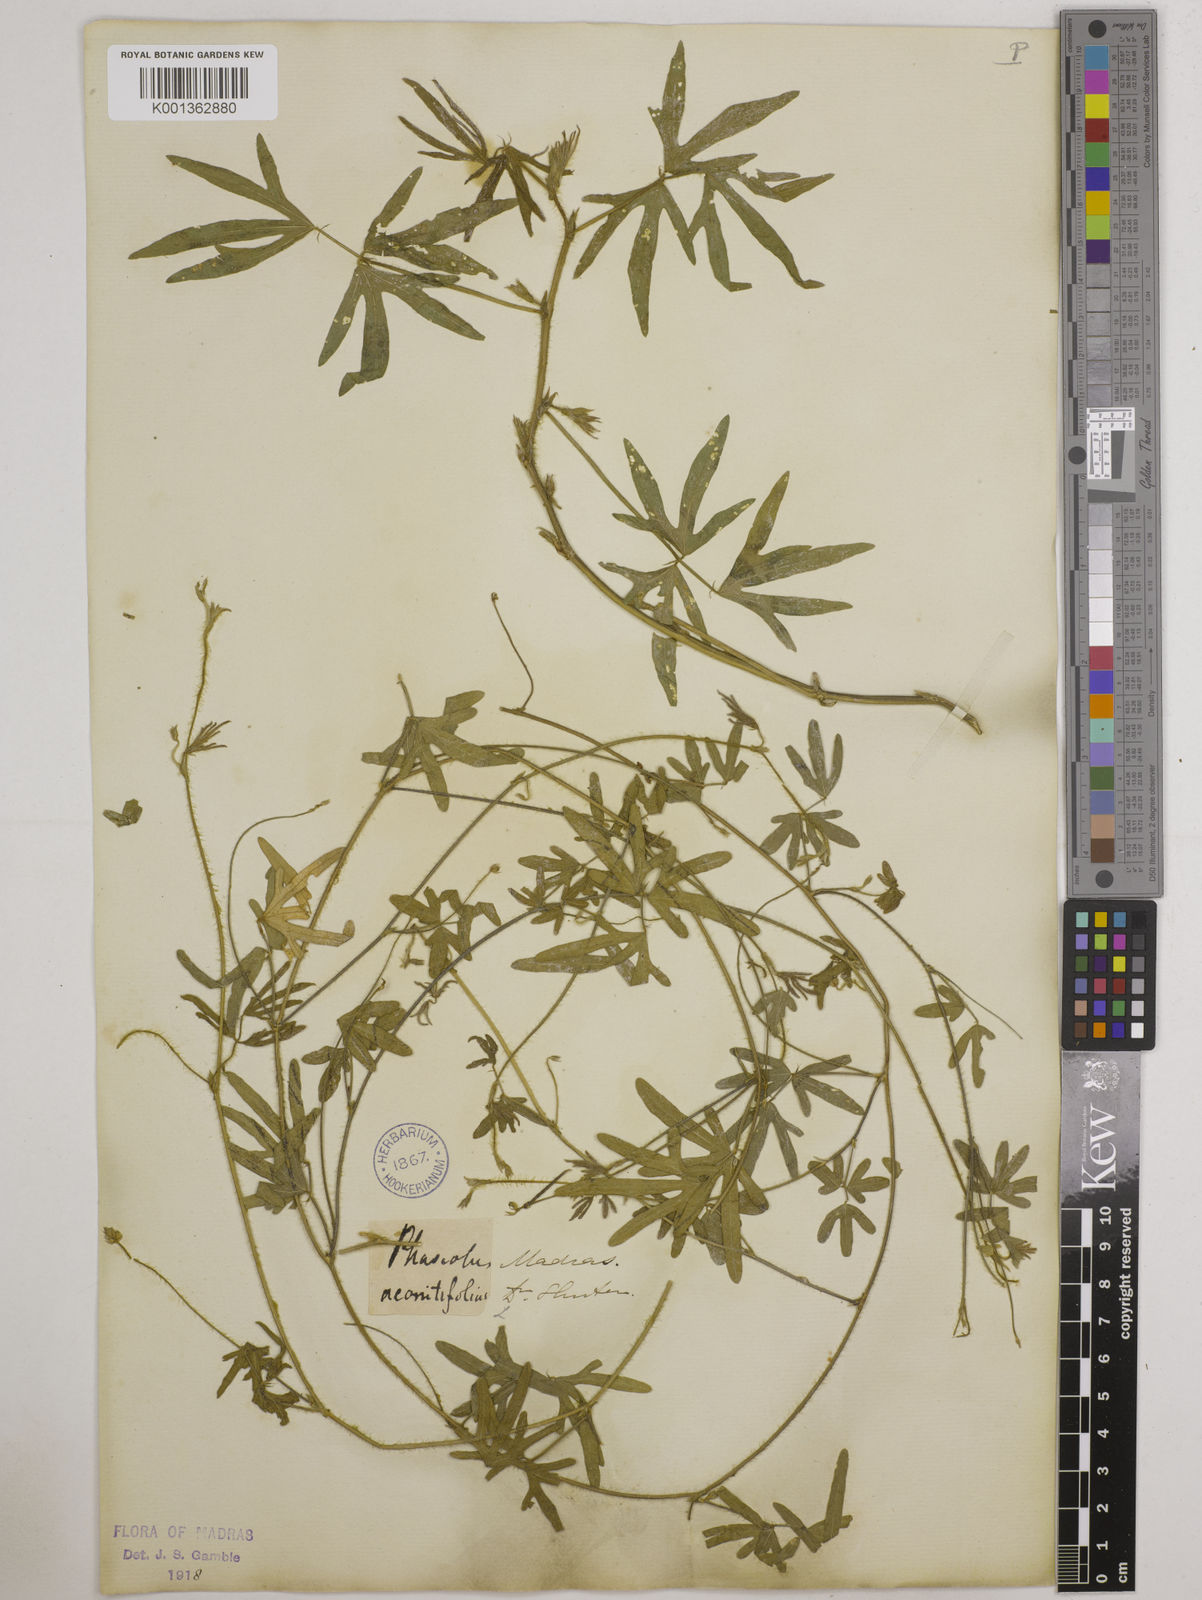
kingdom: Plantae
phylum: Tracheophyta
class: Magnoliopsida
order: Fabales
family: Fabaceae
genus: Vigna
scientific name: Vigna aconitifolia
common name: Dew bean
